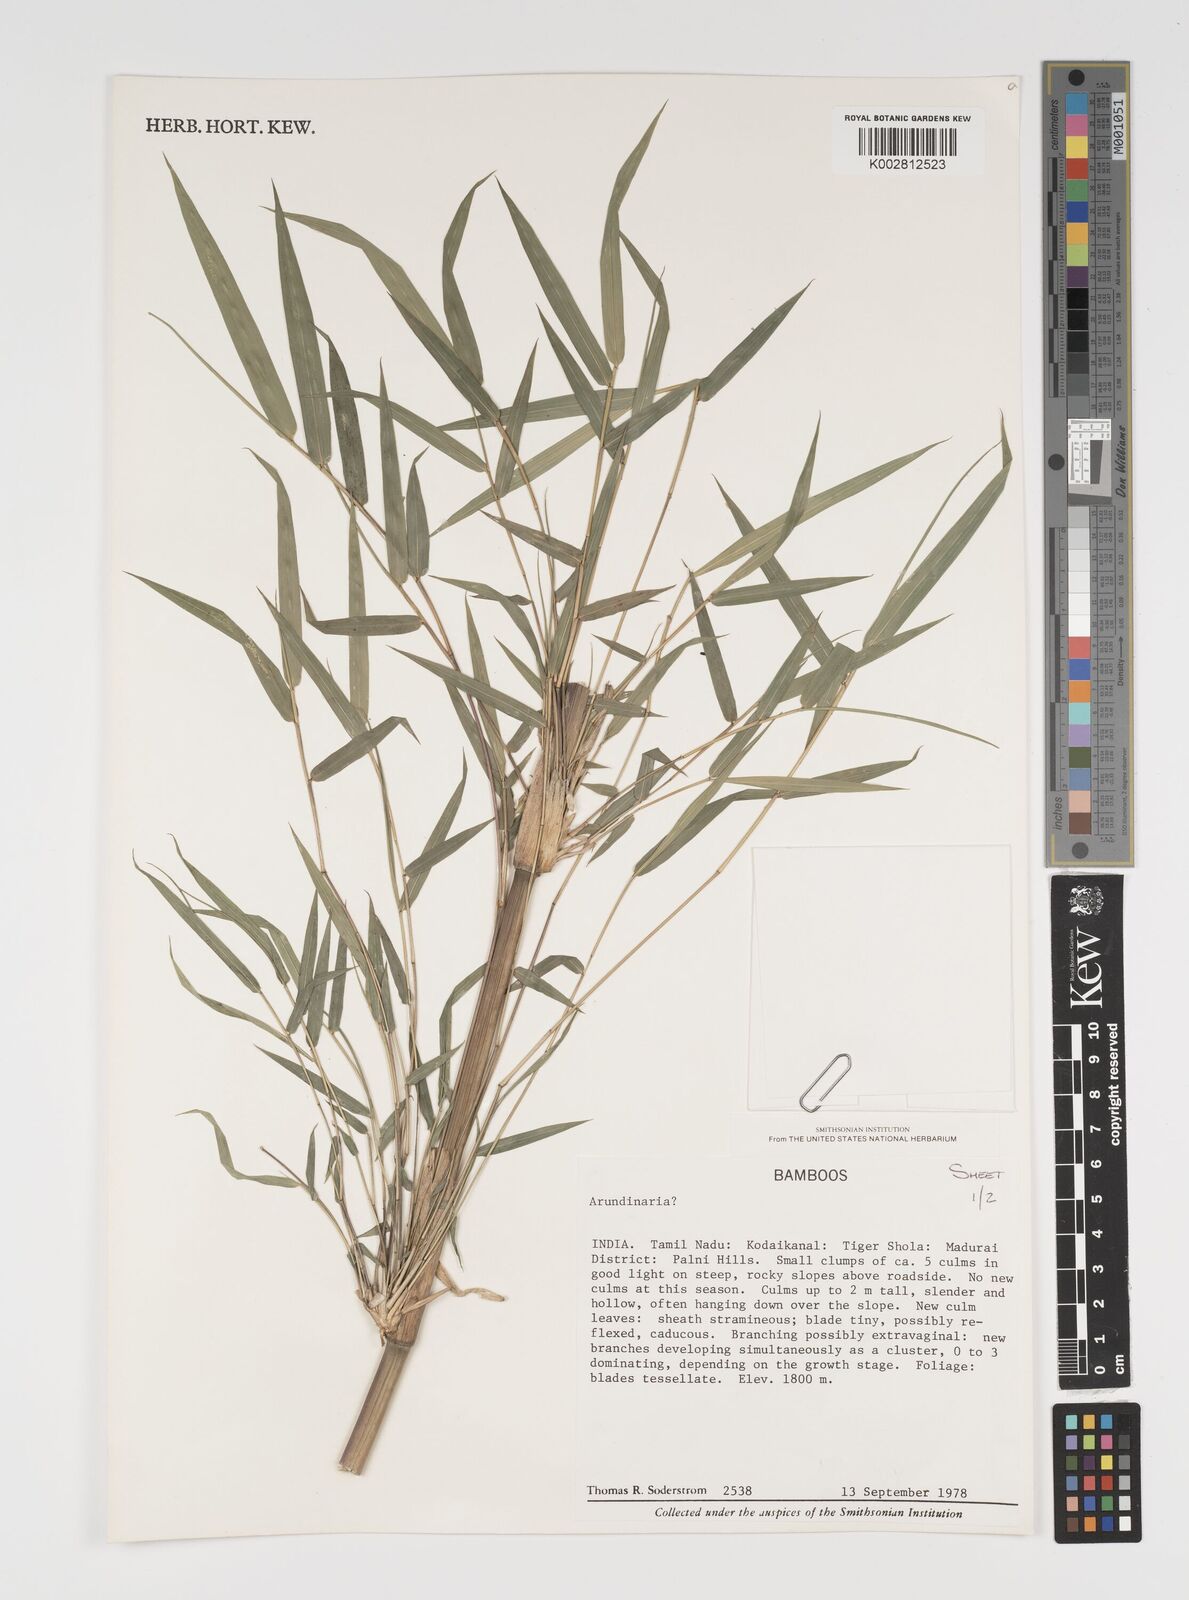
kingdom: Plantae
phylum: Tracheophyta
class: Liliopsida
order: Poales
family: Poaceae
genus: Arundinaria
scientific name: Arundinaria
